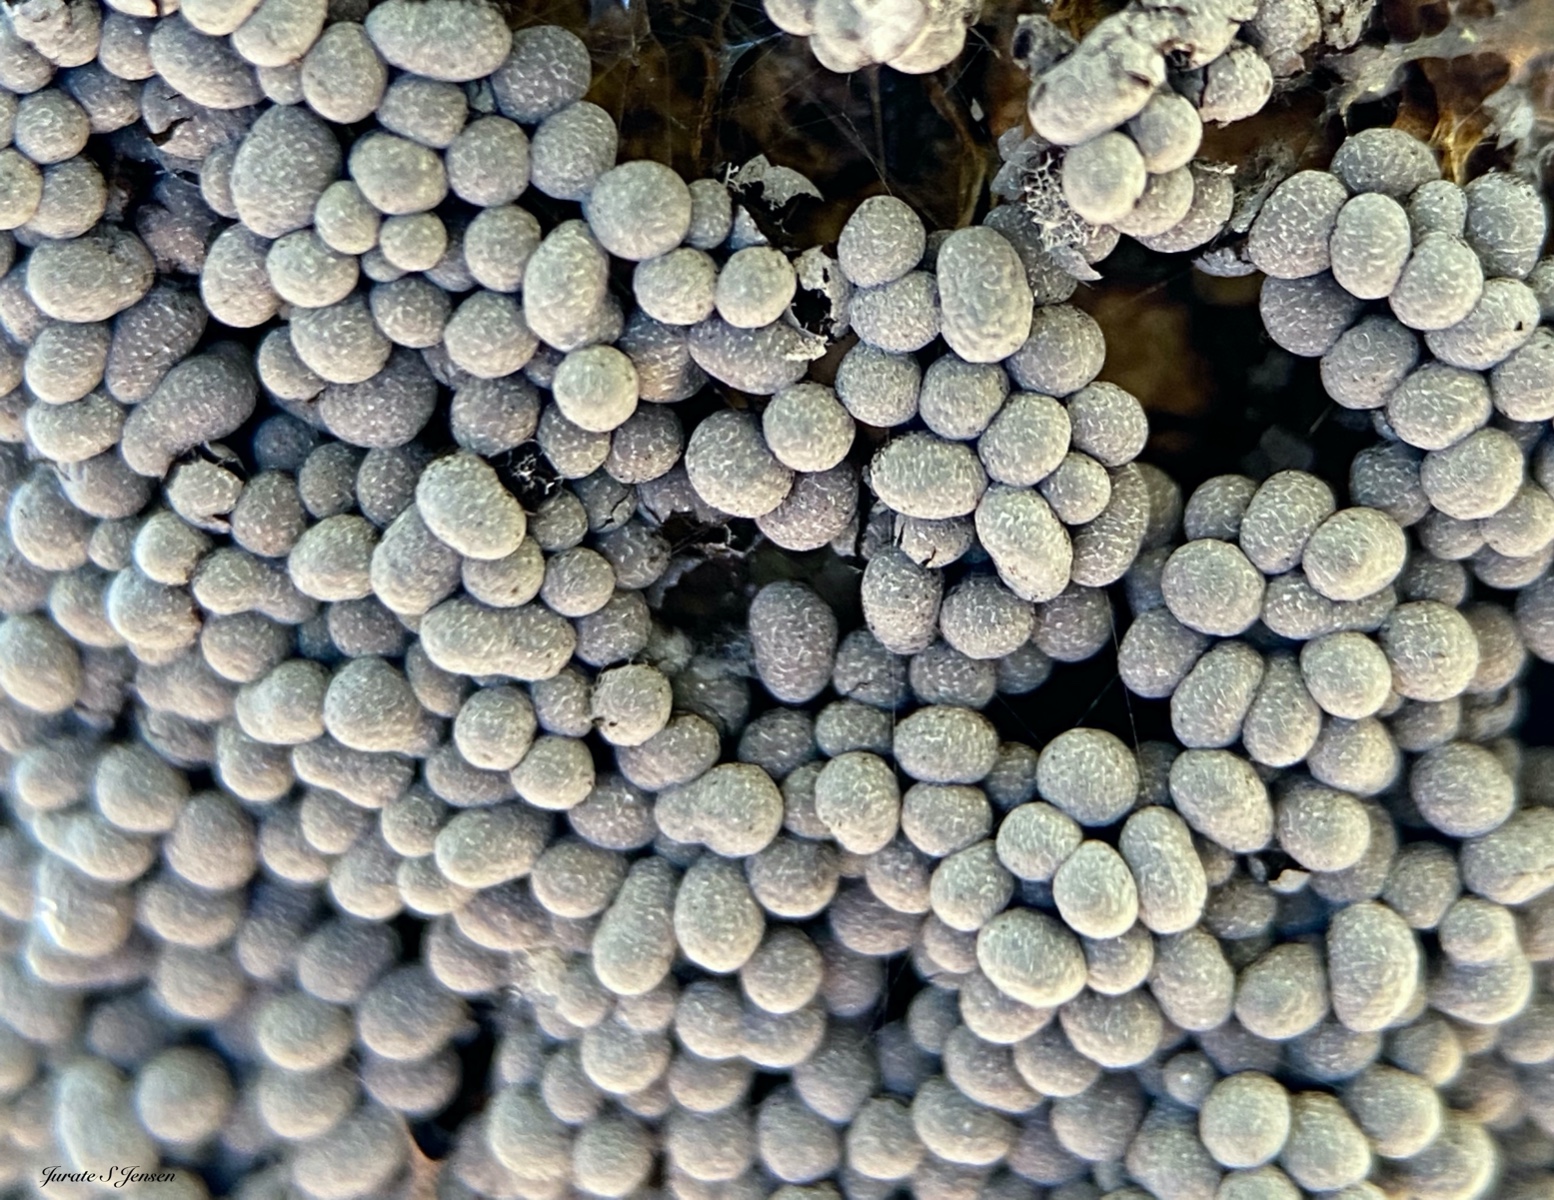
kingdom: Protozoa
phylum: Mycetozoa
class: Myxomycetes
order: Physarales
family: Physaraceae
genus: Badhamia
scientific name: Badhamia utricularis
